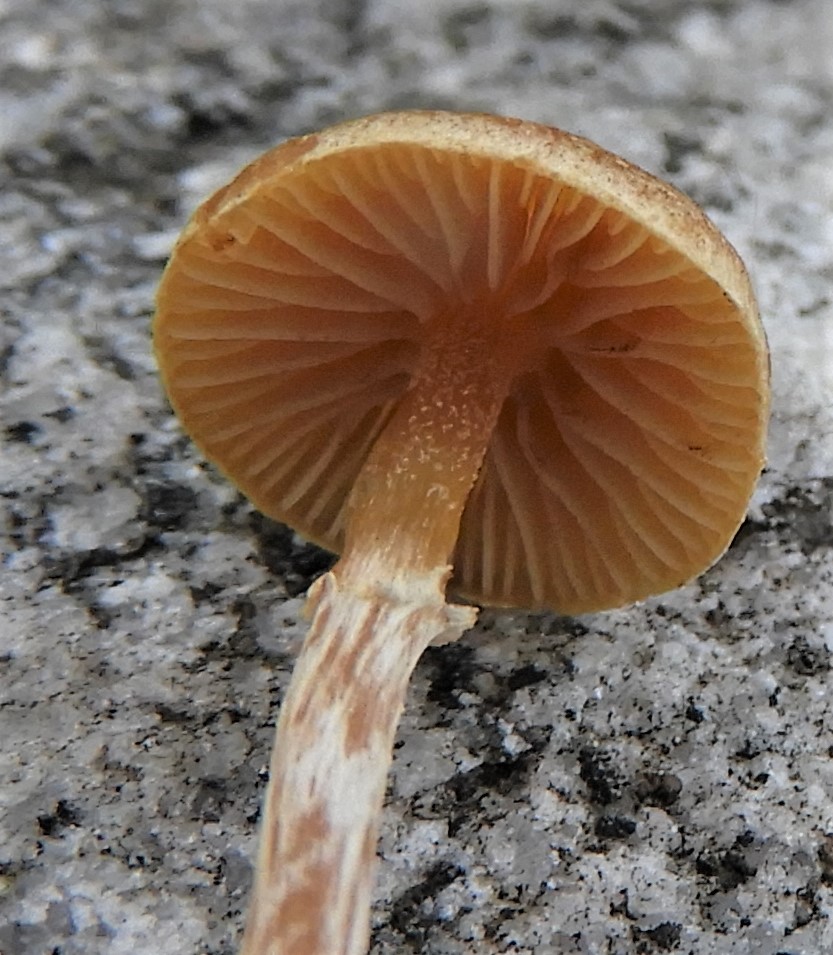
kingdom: Fungi
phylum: Basidiomycota
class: Agaricomycetes
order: Agaricales
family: Hymenogastraceae
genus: Galerina
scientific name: Galerina paludosa
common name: mose-hjelmhat
